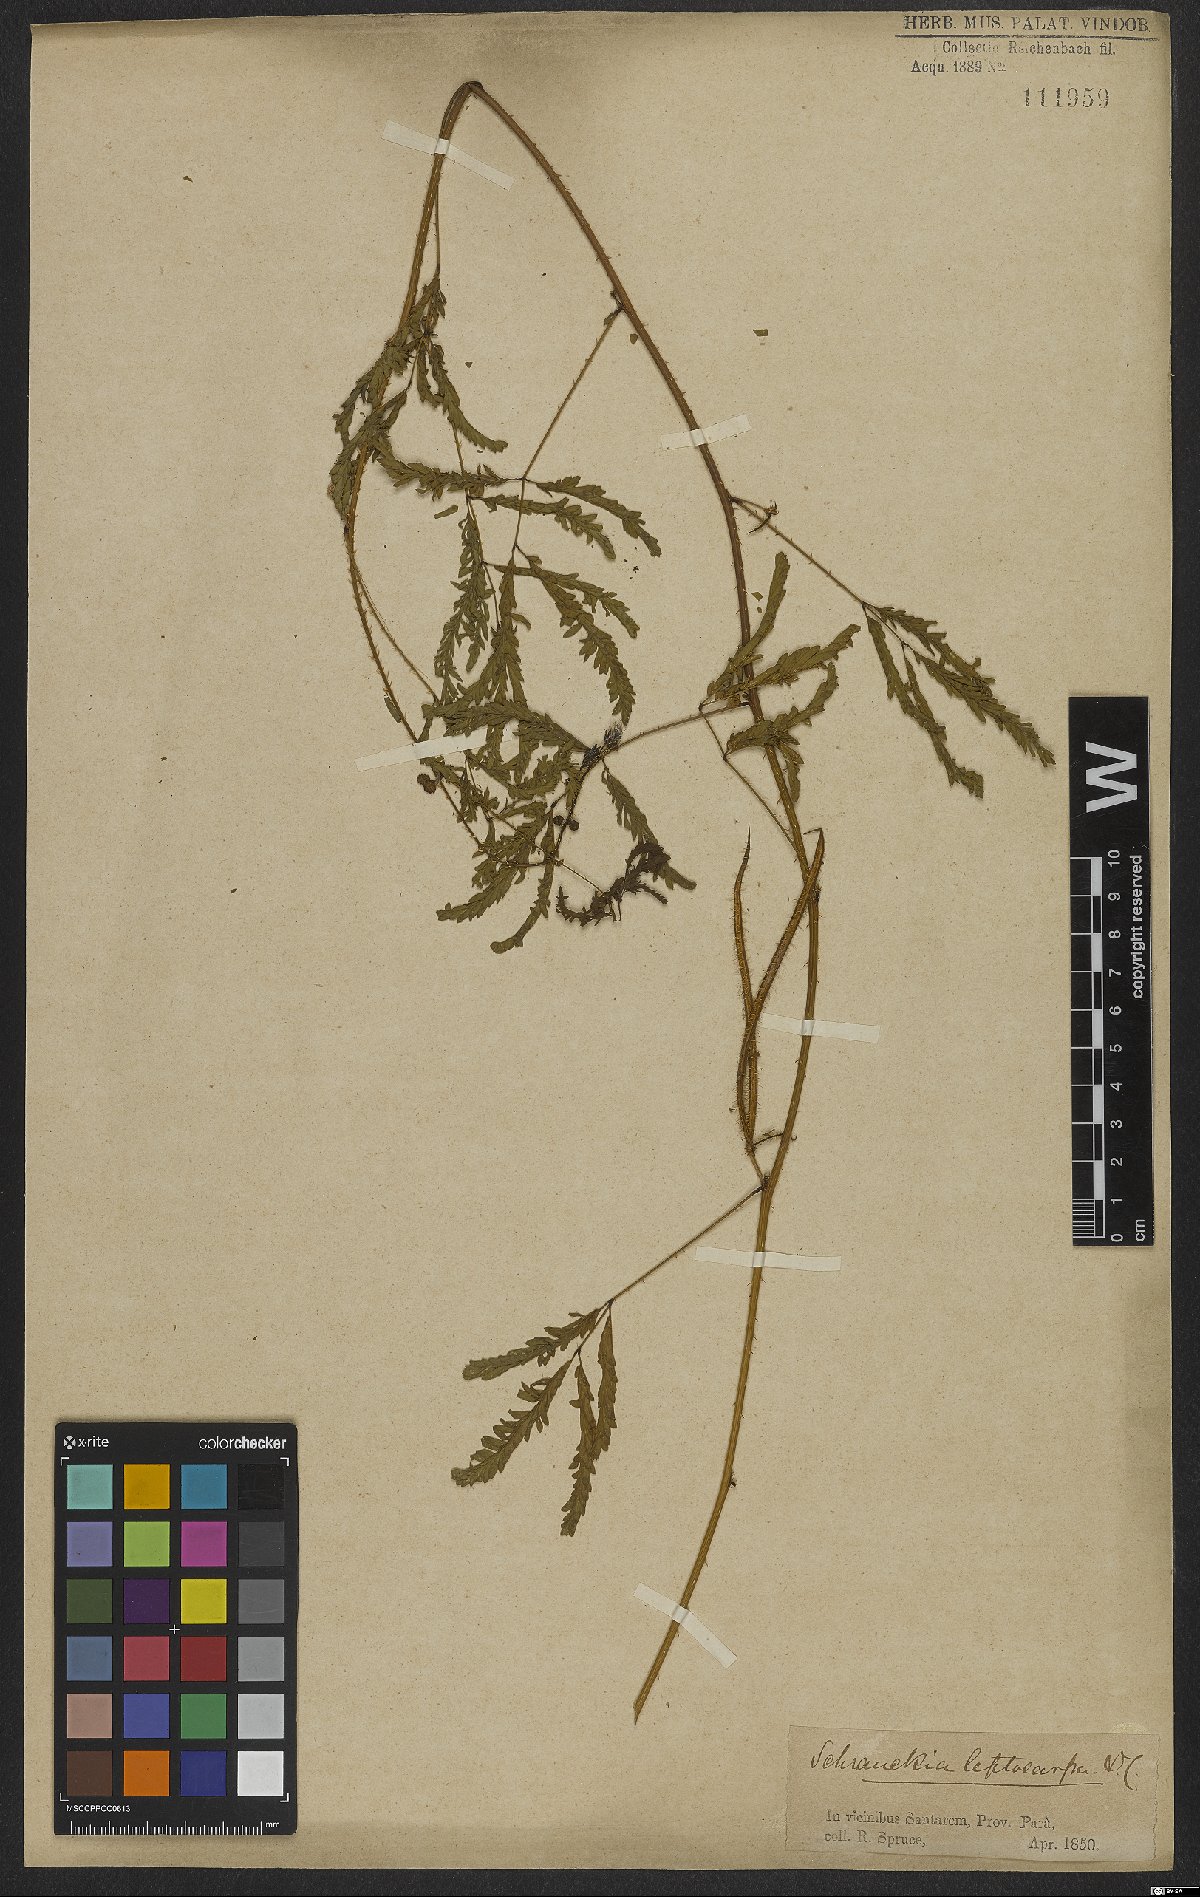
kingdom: Plantae
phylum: Tracheophyta
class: Magnoliopsida
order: Fabales
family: Fabaceae
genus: Mimosa
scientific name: Mimosa candollei
